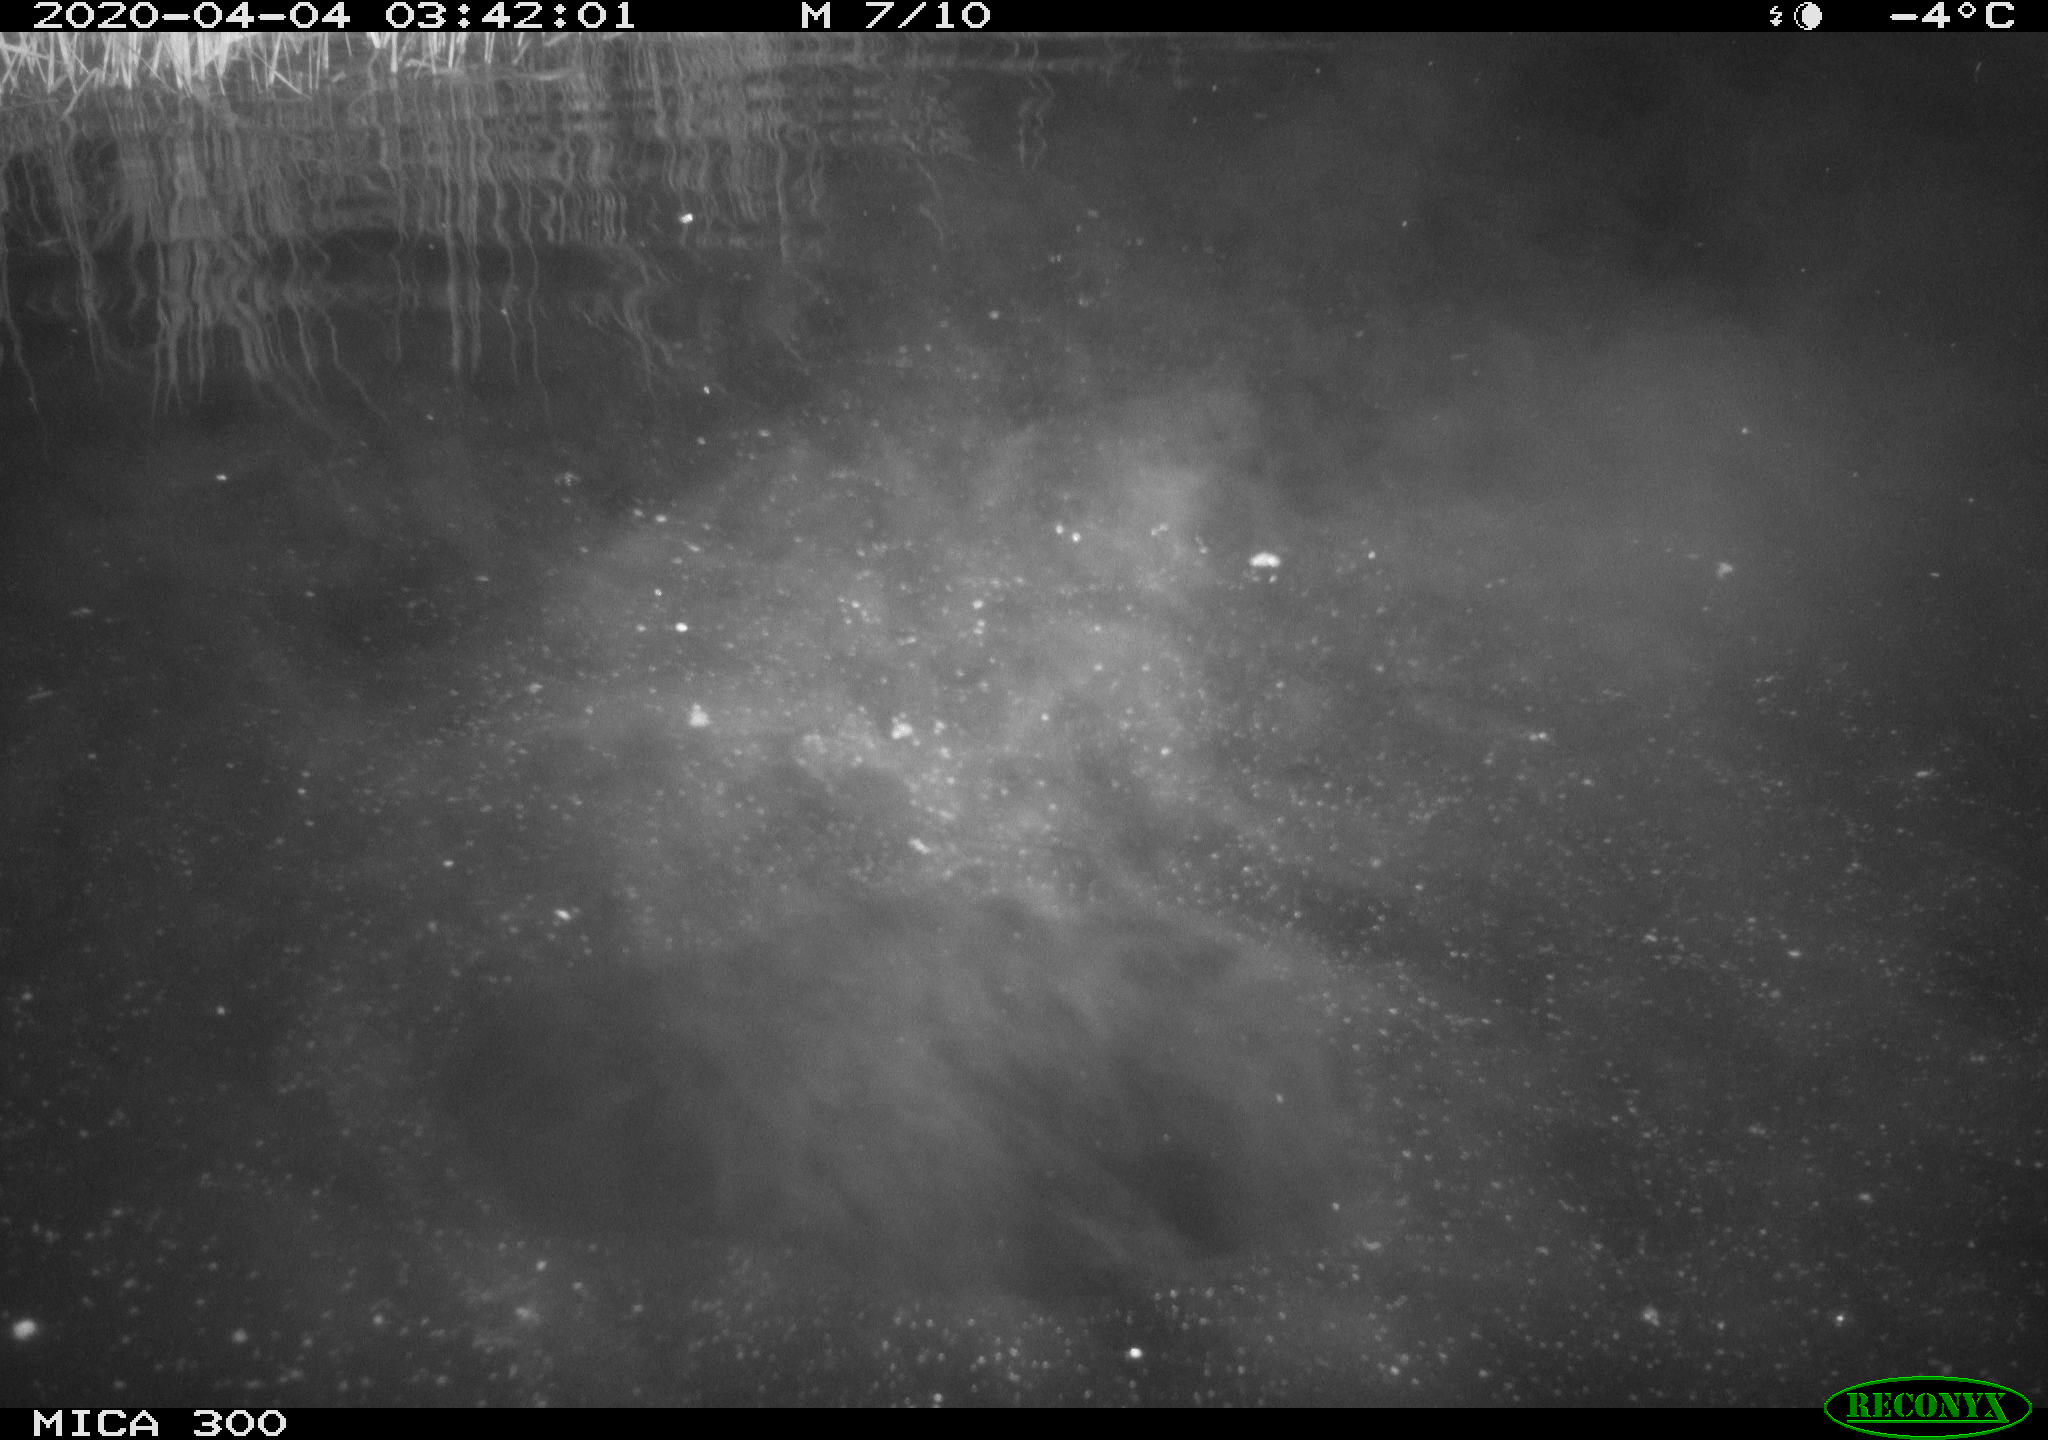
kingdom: Animalia
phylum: Chordata
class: Mammalia
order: Rodentia
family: Castoridae
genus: Castor
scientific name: Castor fiber
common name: Eurasian beaver
